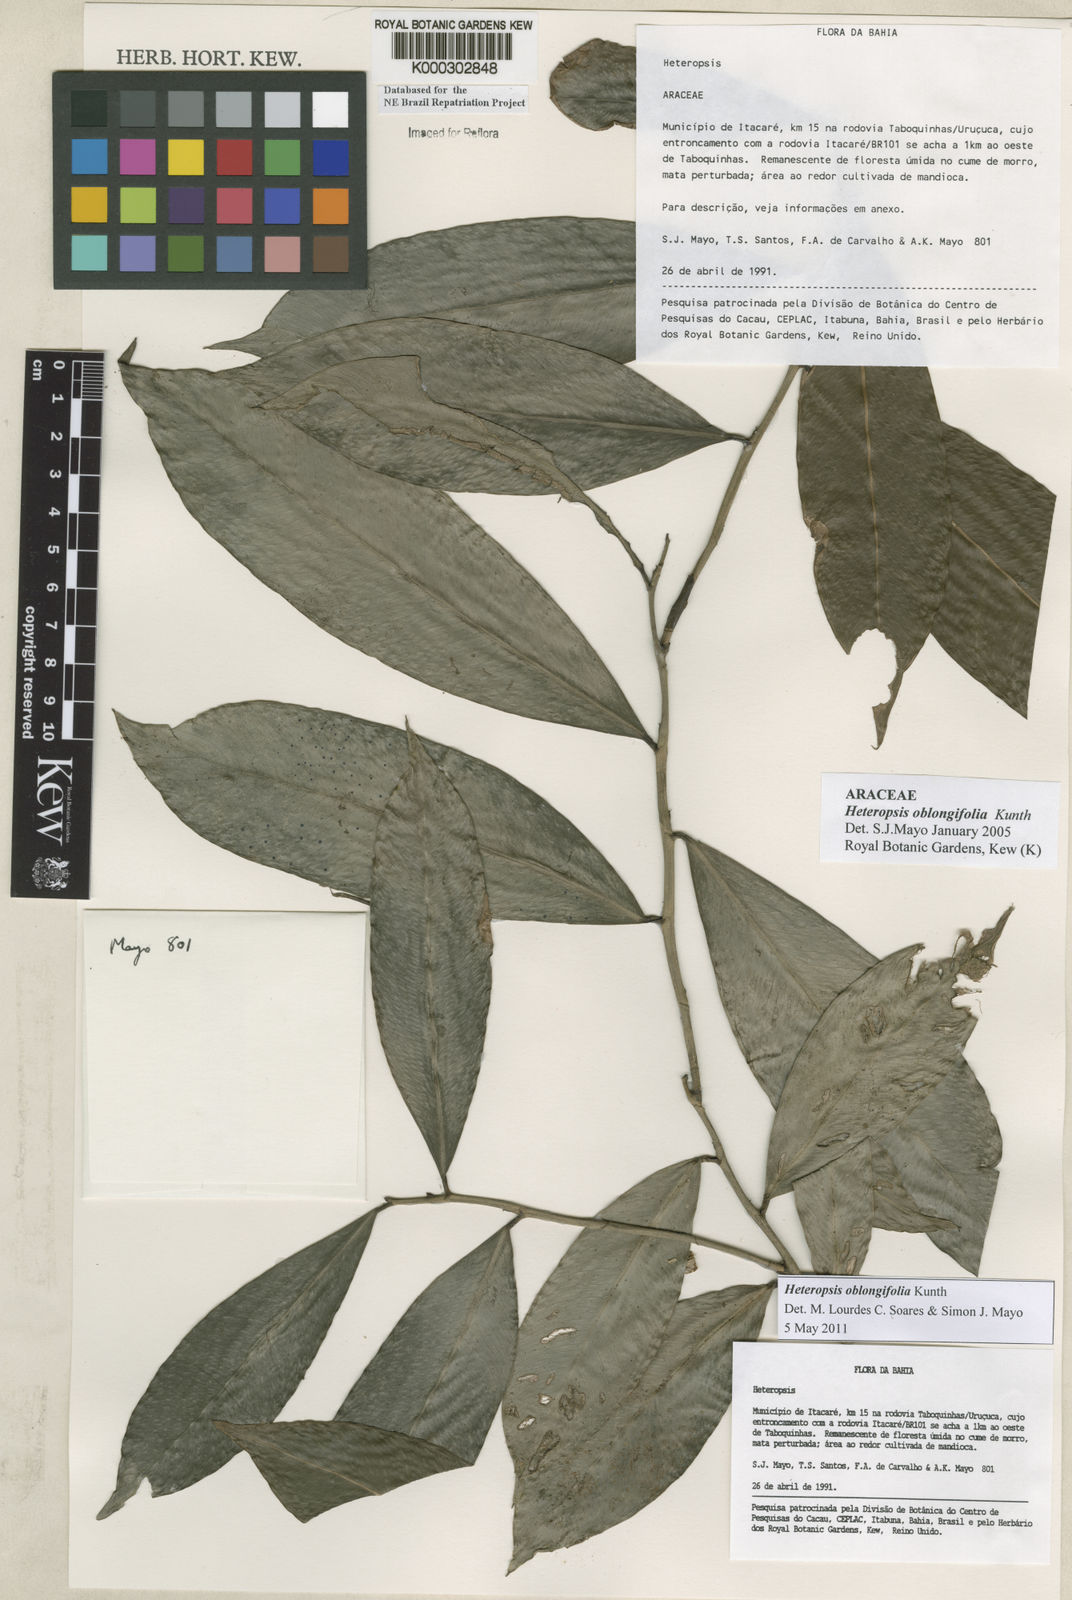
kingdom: Plantae
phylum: Tracheophyta
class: Liliopsida
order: Alismatales
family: Araceae
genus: Heteropsis
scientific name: Heteropsis oblongifolia
